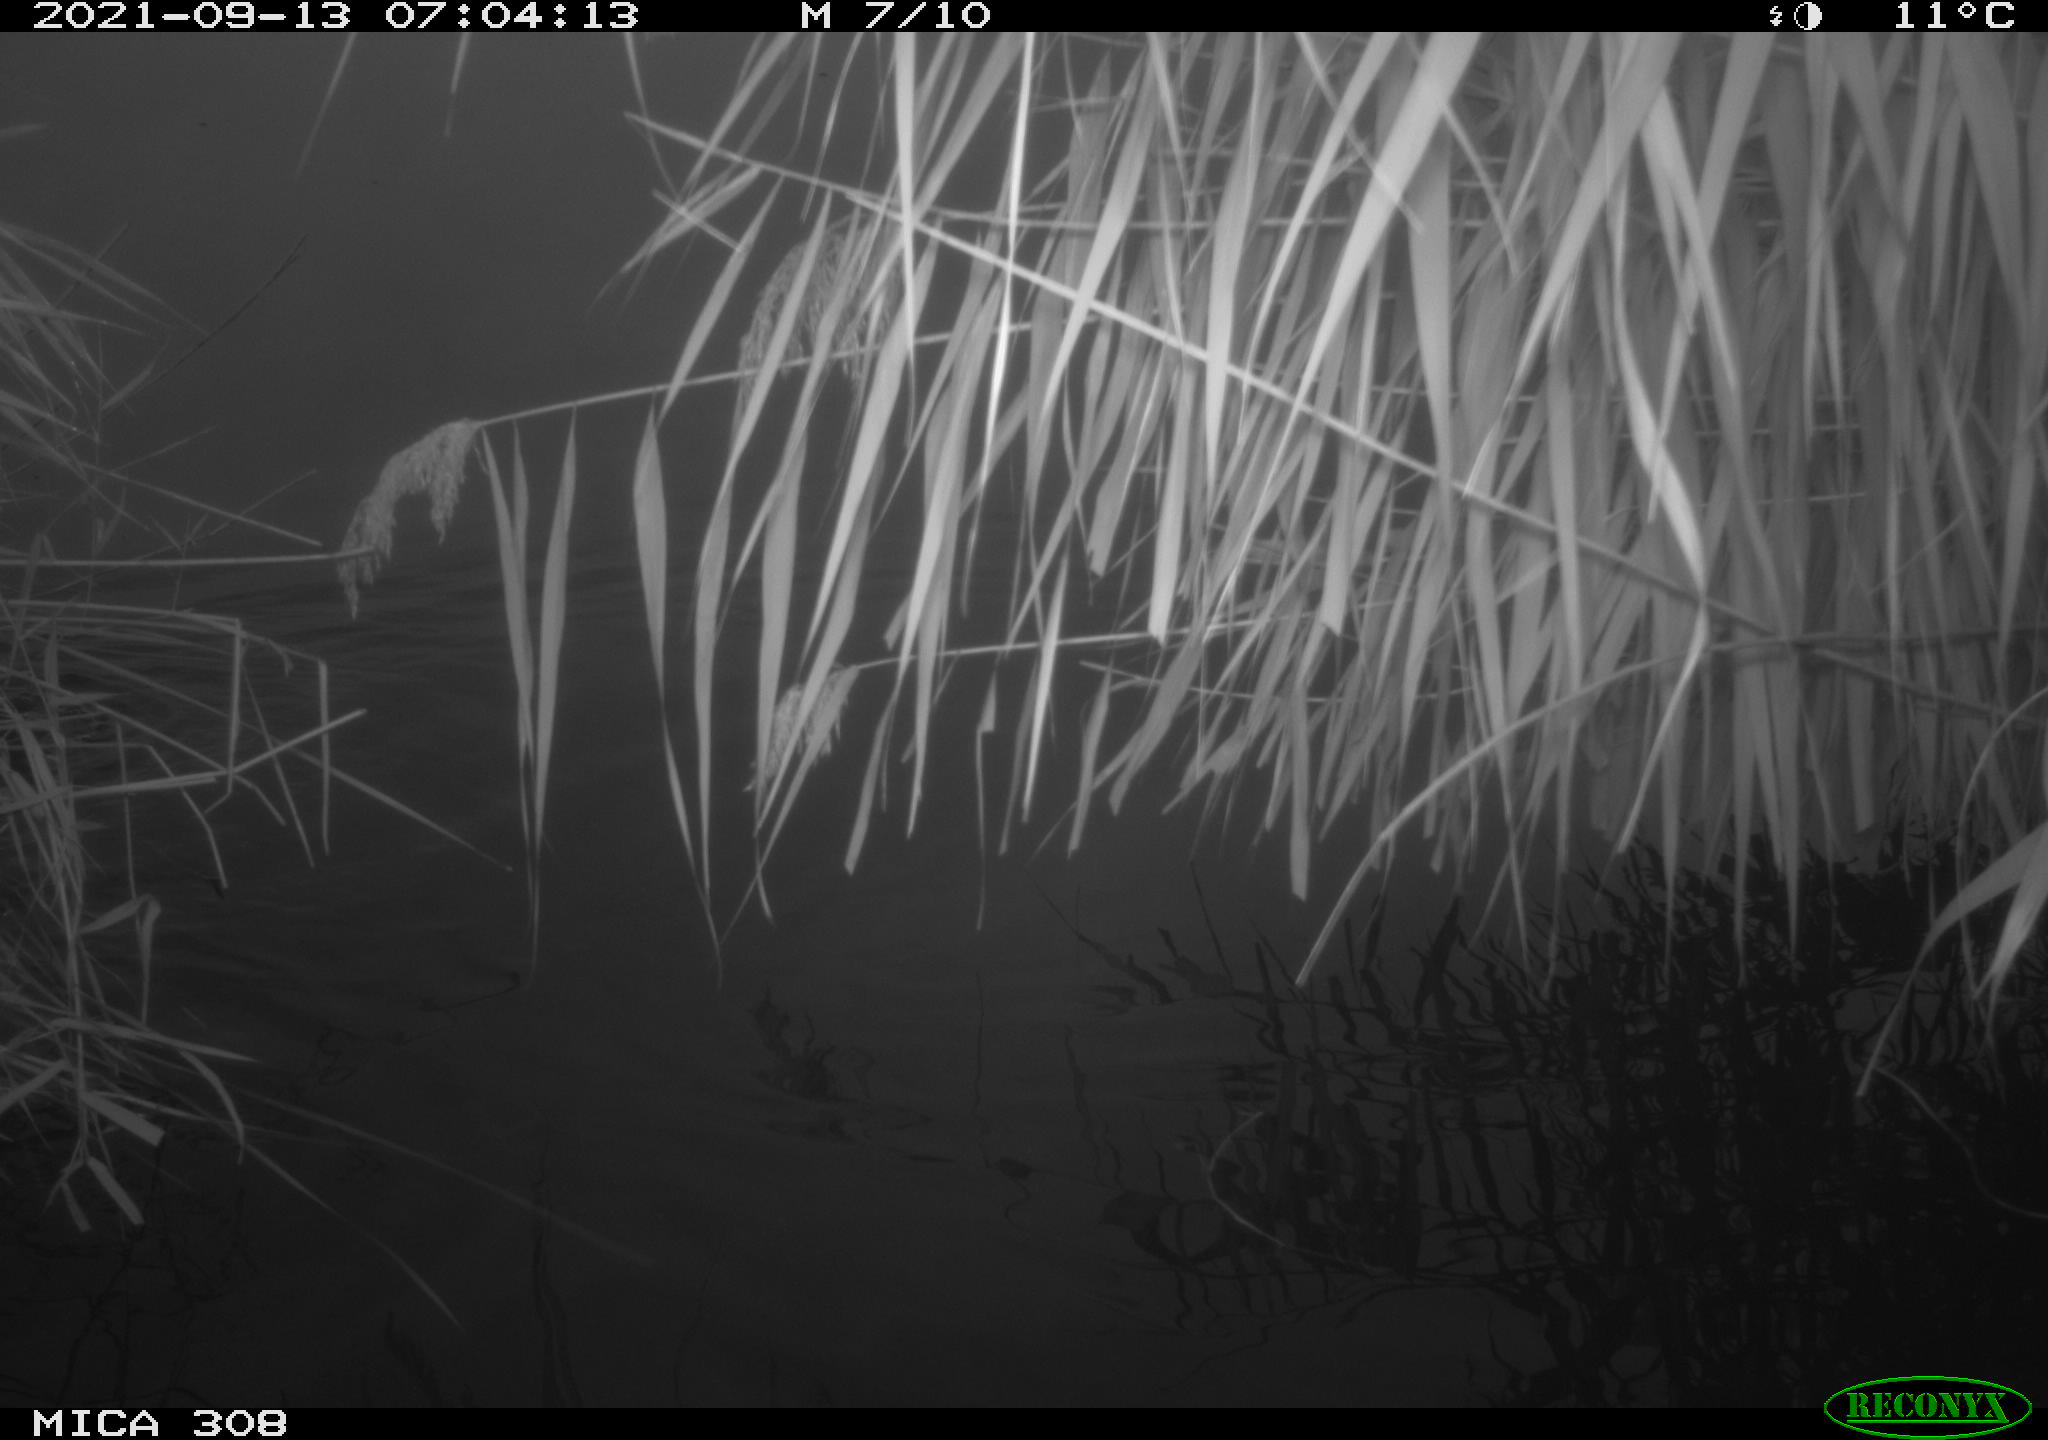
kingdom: Animalia
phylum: Chordata
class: Aves
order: Gruiformes
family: Rallidae
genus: Gallinula
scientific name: Gallinula chloropus
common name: Common moorhen
